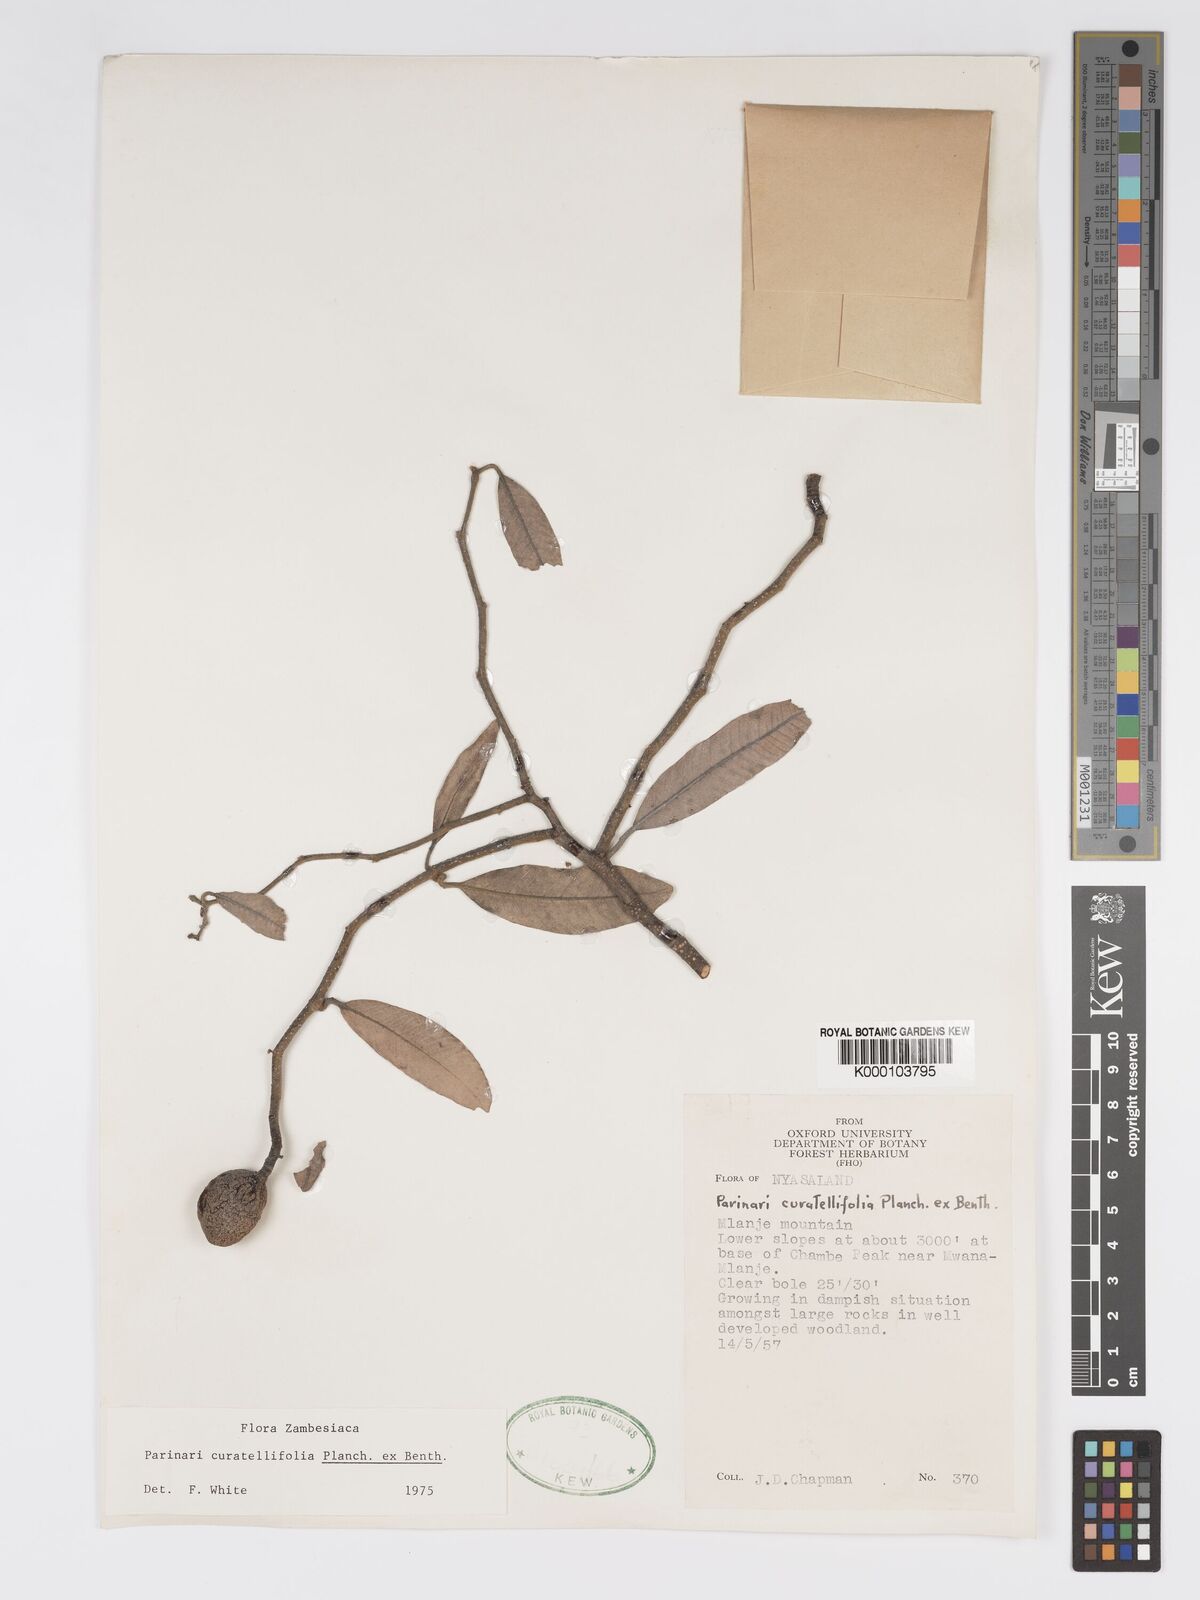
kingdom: Plantae
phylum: Tracheophyta
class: Magnoliopsida
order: Malpighiales
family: Chrysobalanaceae
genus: Parinari
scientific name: Parinari curatellifolia
